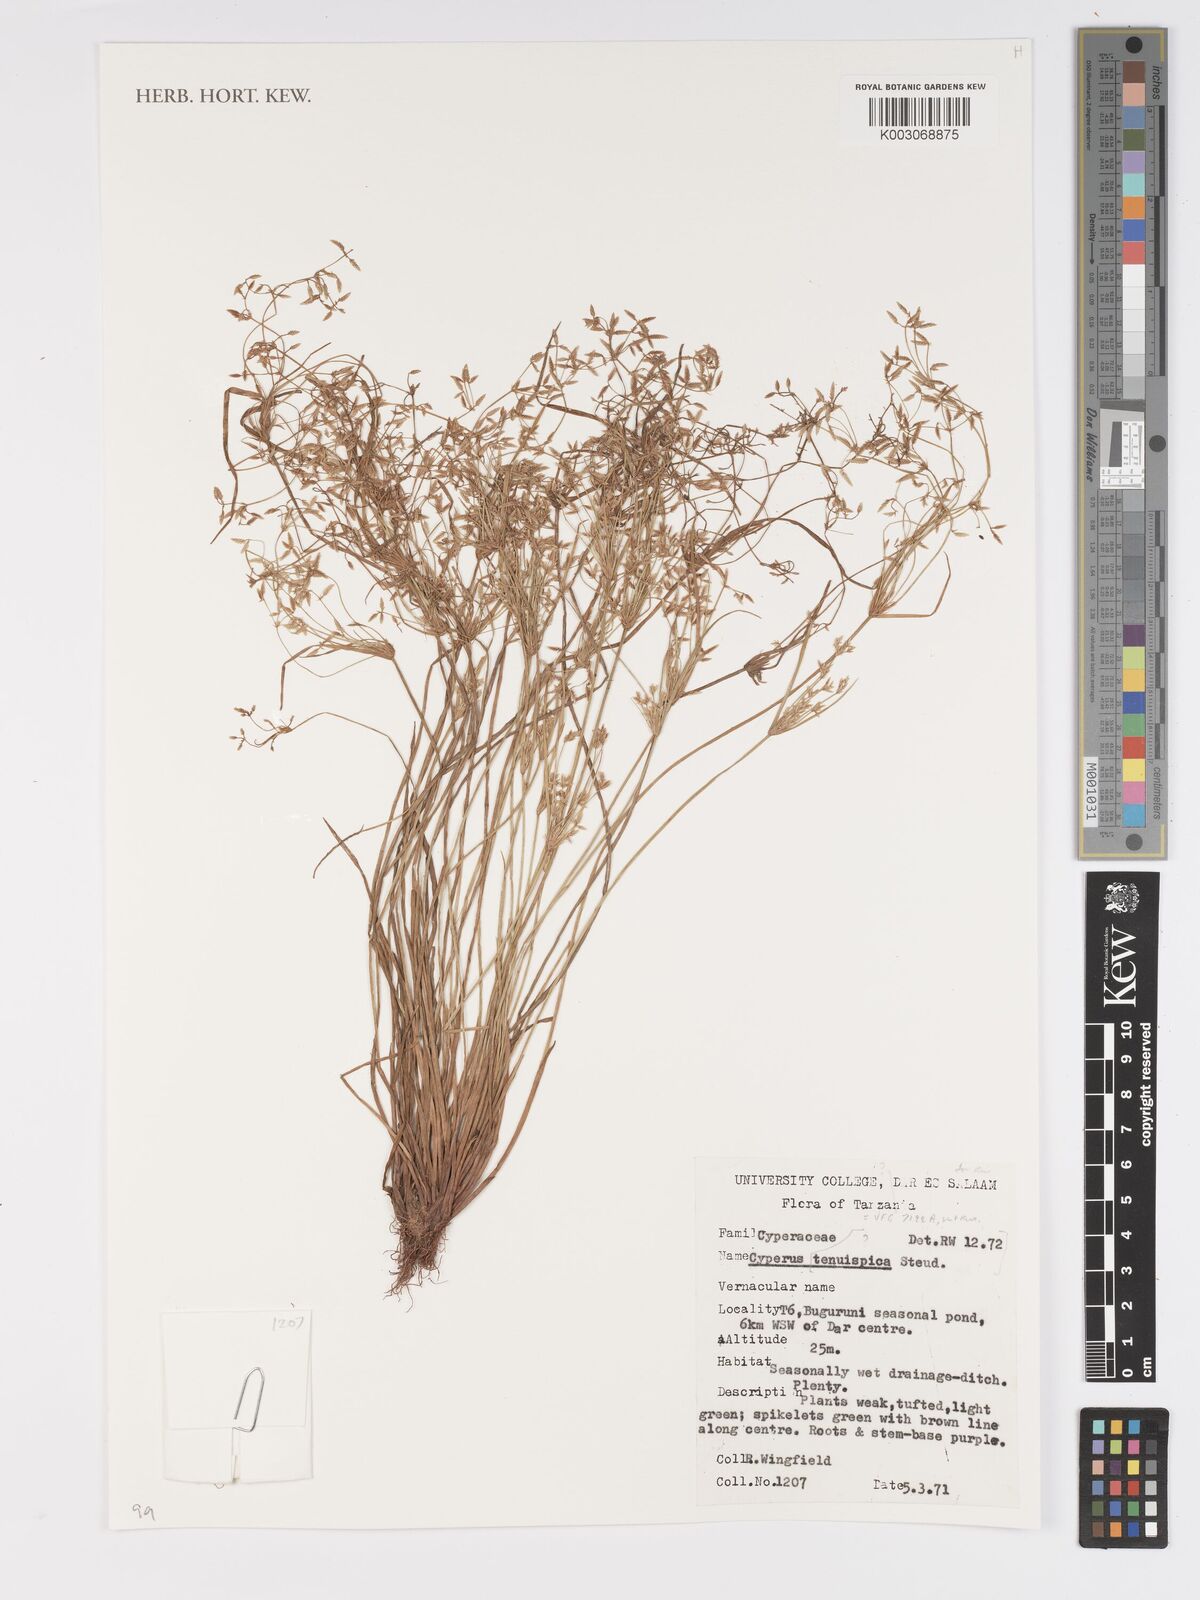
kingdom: Plantae
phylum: Tracheophyta
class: Liliopsida
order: Poales
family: Cyperaceae
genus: Cyperus
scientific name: Cyperus tenuispica
